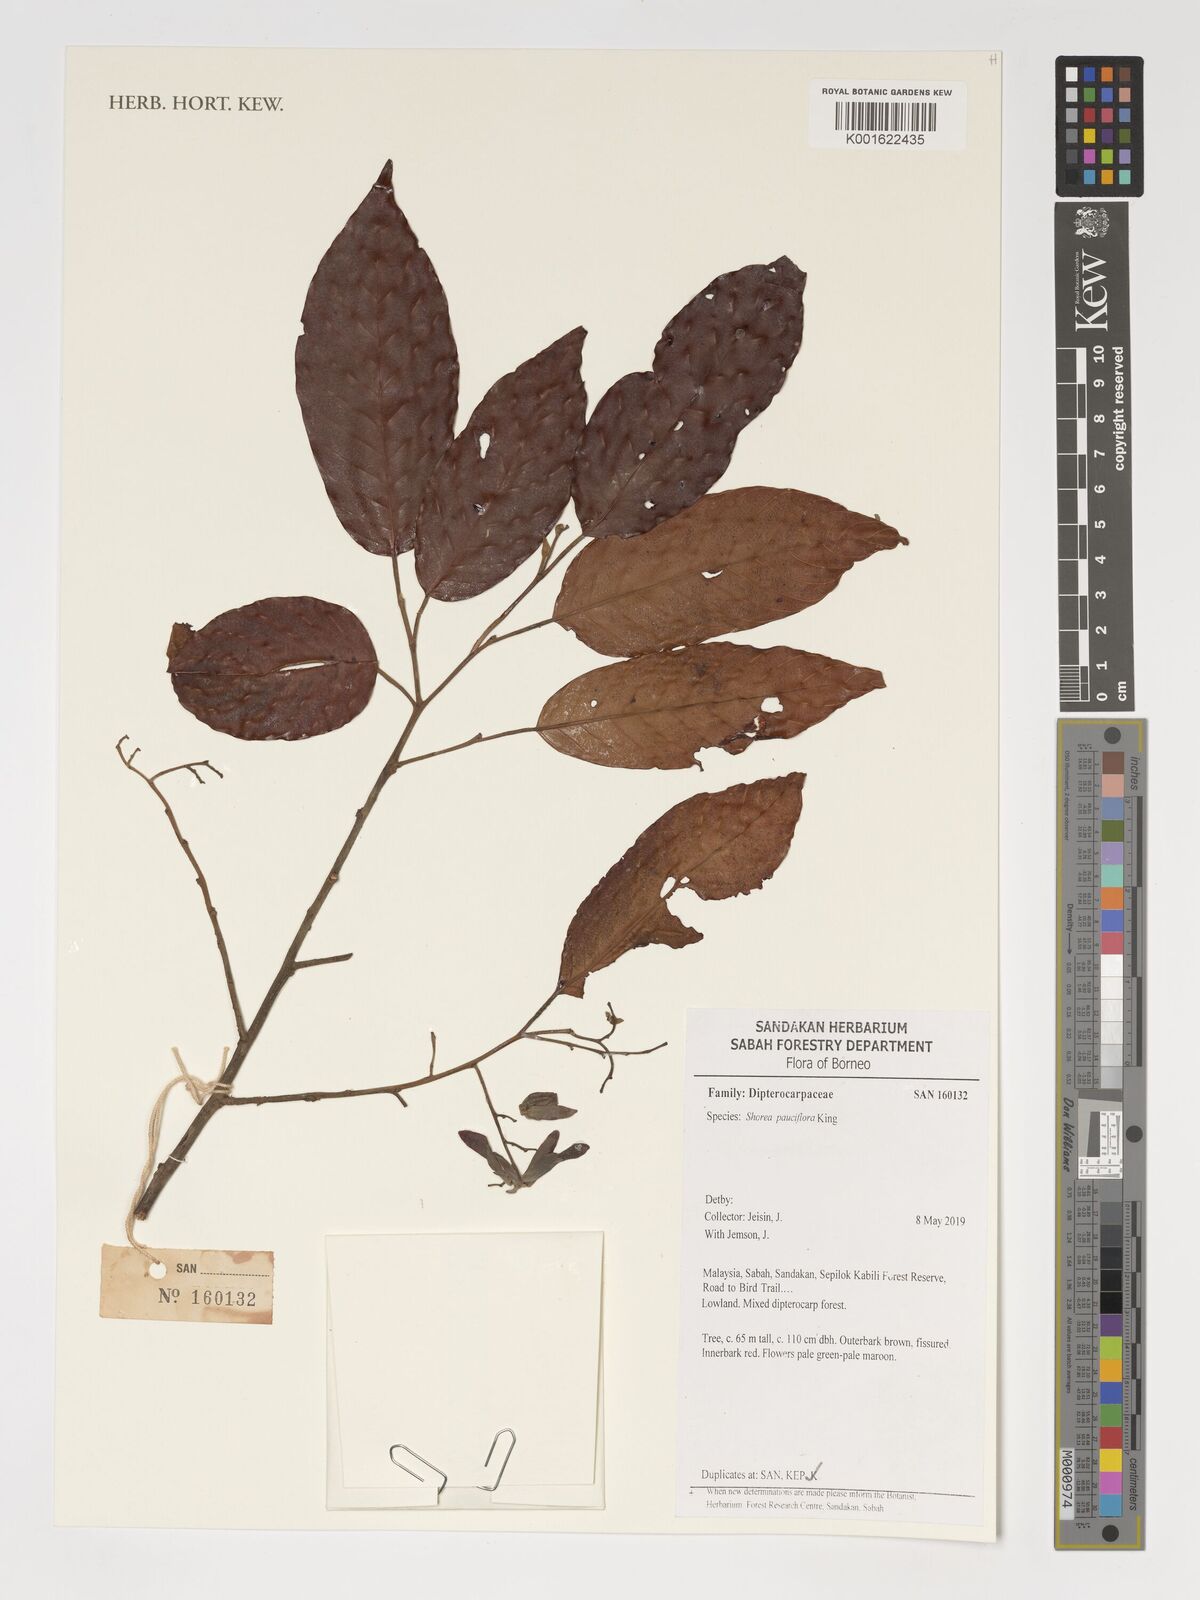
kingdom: Plantae
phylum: Tracheophyta
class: Magnoliopsida
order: Malvales
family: Dipterocarpaceae
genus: Shorea
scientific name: Shorea pauciflora
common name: Dark red meranti
